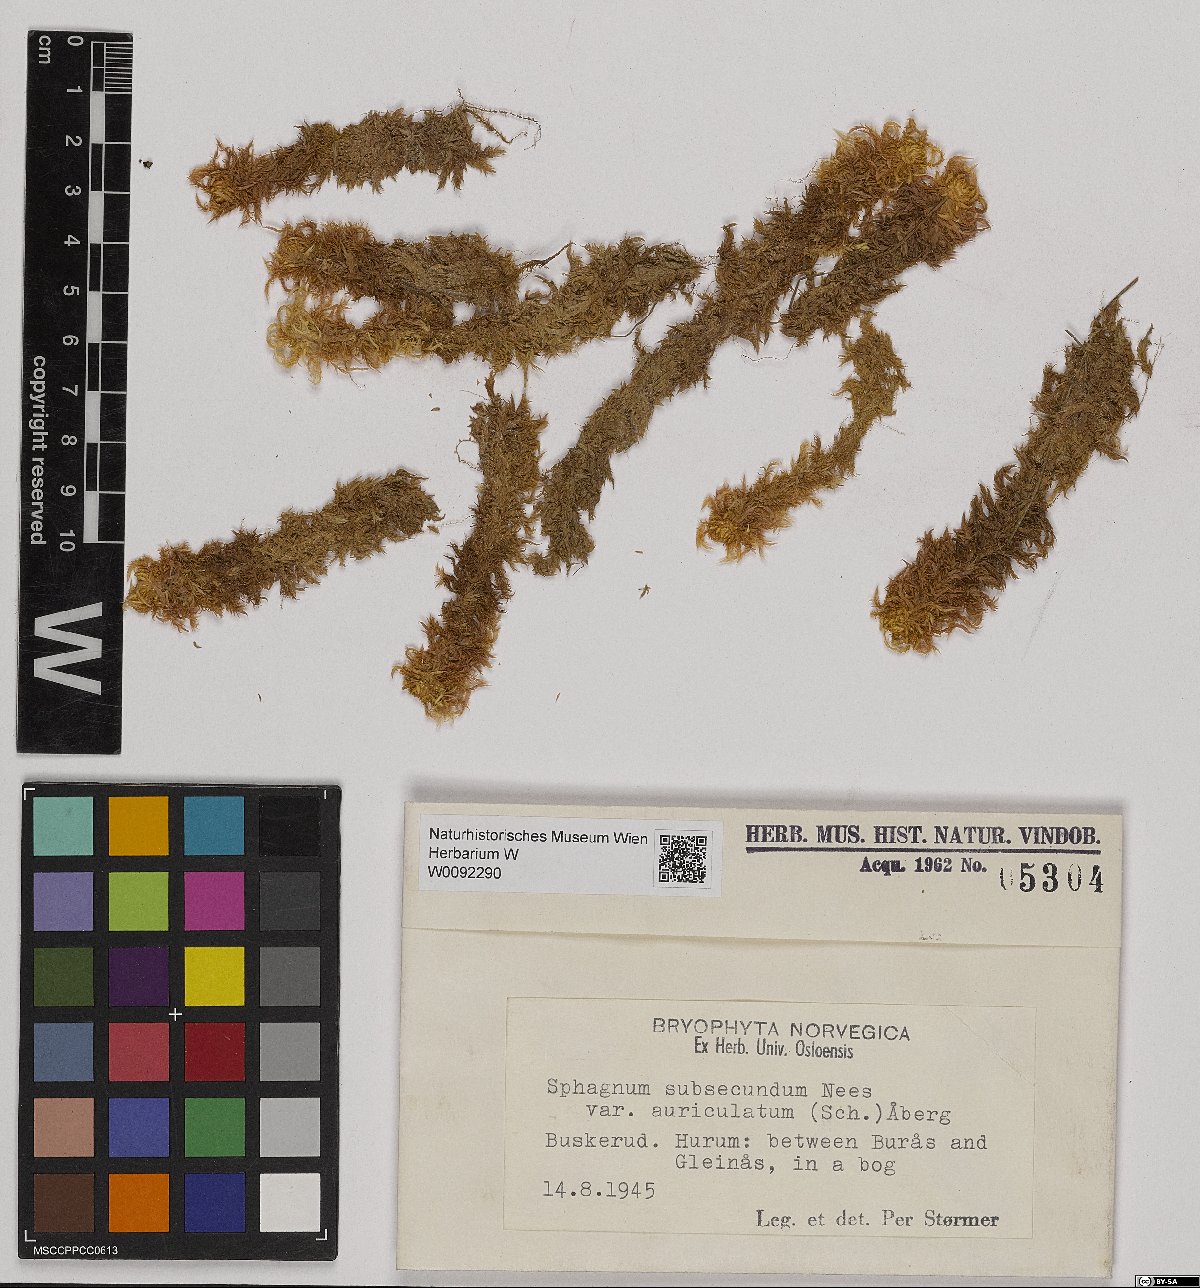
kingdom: Plantae
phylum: Bryophyta
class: Sphagnopsida
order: Sphagnales
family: Sphagnaceae
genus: Sphagnum
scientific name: Sphagnum denticulatum
